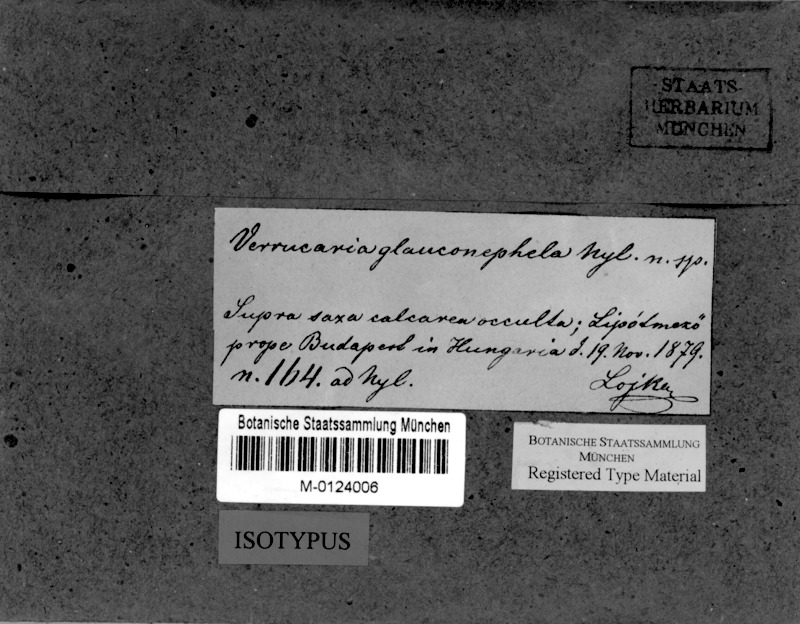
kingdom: Fungi
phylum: Ascomycota
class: Eurotiomycetes
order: Verrucariales
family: Verrucariaceae
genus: Verrucaria
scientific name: Verrucaria glauconephela
